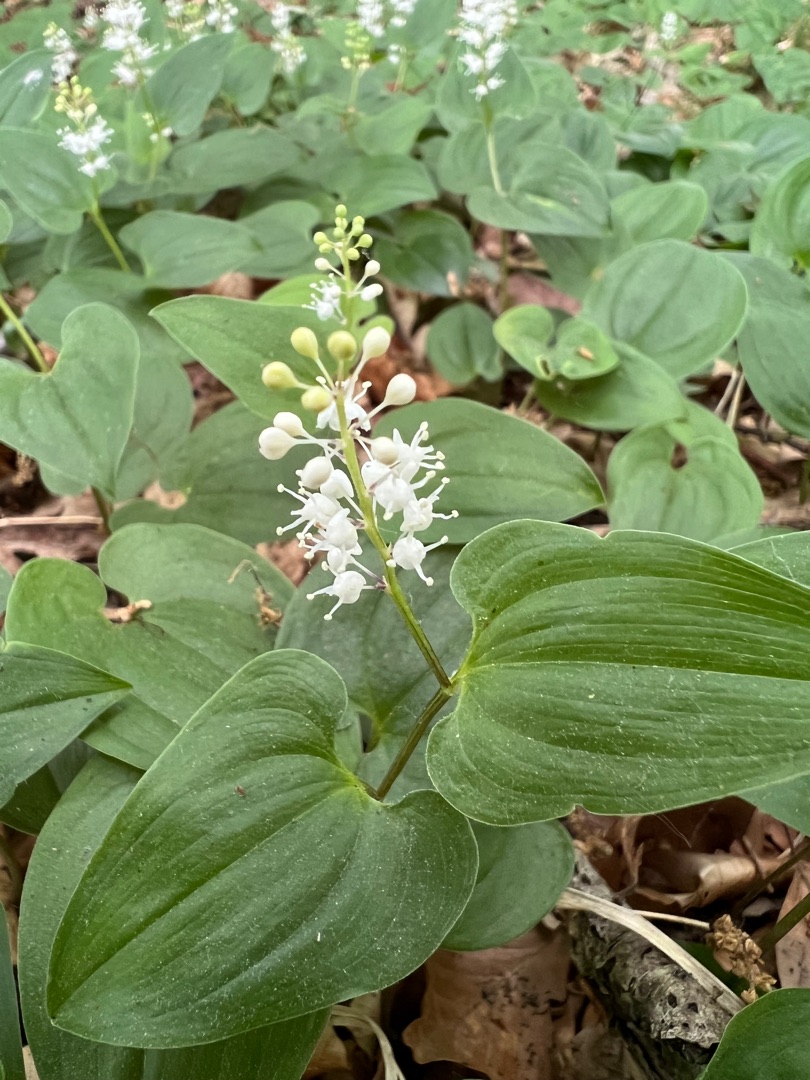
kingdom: Plantae
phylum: Tracheophyta
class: Liliopsida
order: Asparagales
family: Asparagaceae
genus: Maianthemum
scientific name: Maianthemum bifolium
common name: Majblomst
